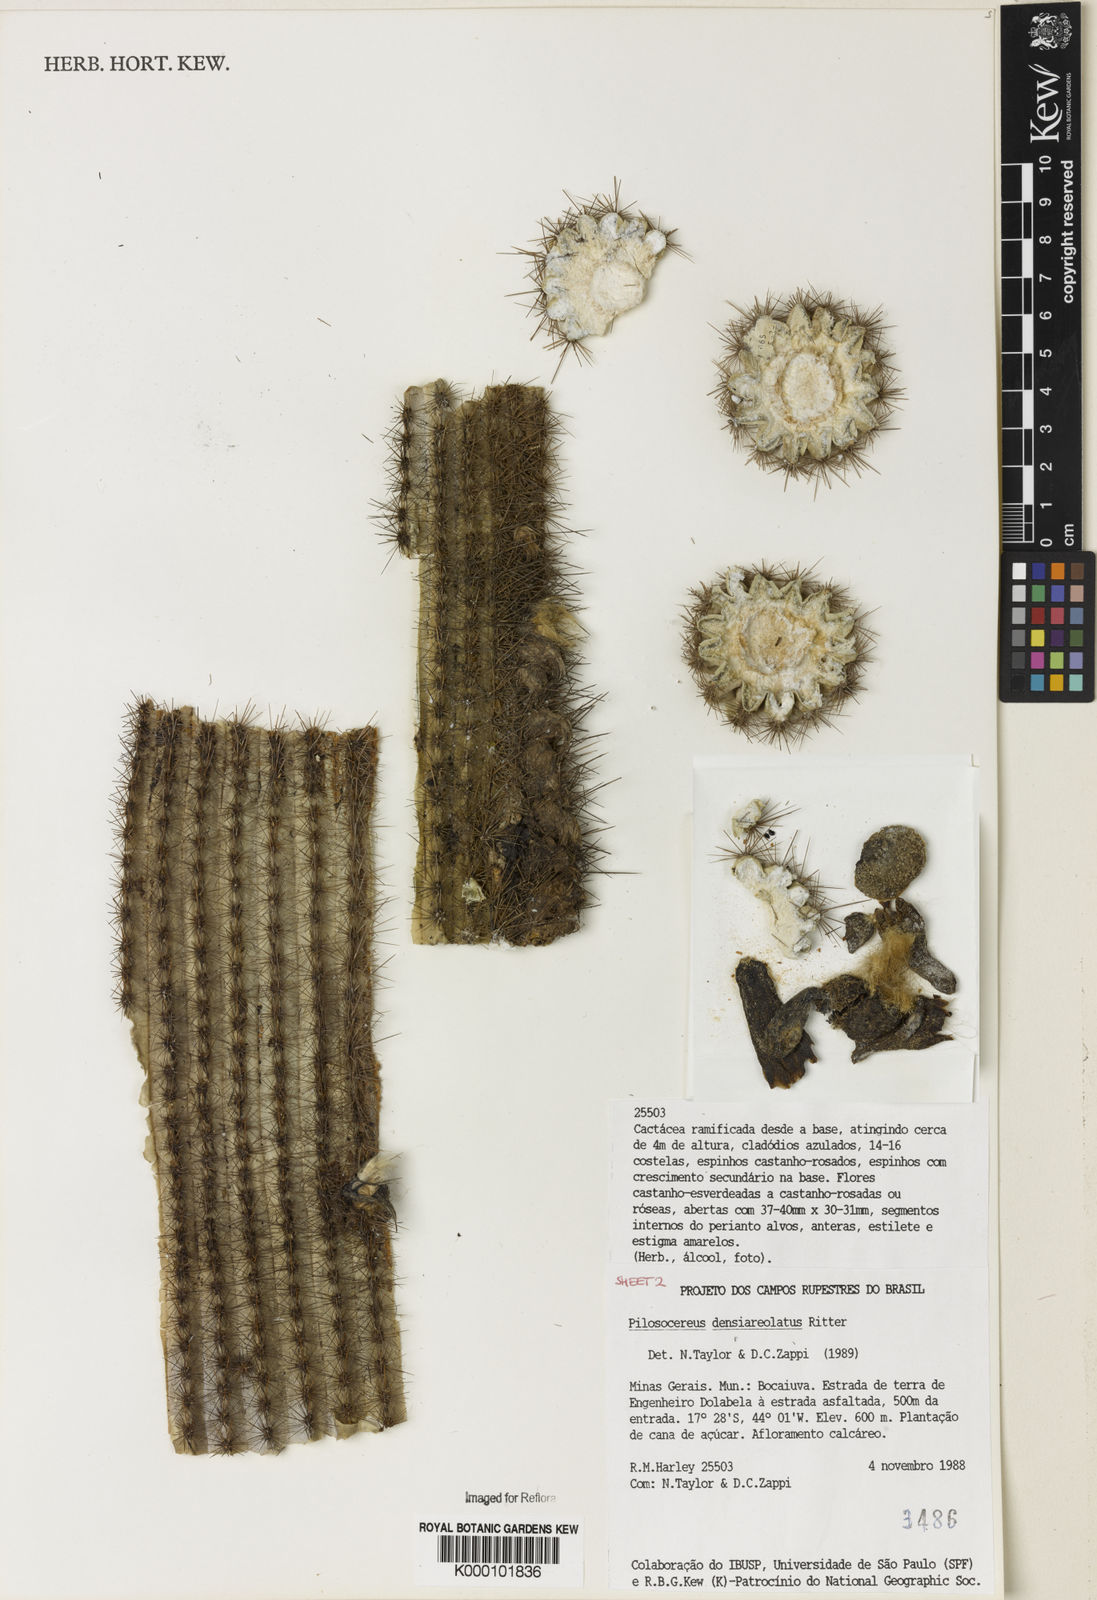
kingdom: Plantae
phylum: Tracheophyta
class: Magnoliopsida
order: Caryophyllales
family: Cactaceae
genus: Pilosocereus
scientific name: Pilosocereus densiareolatus
